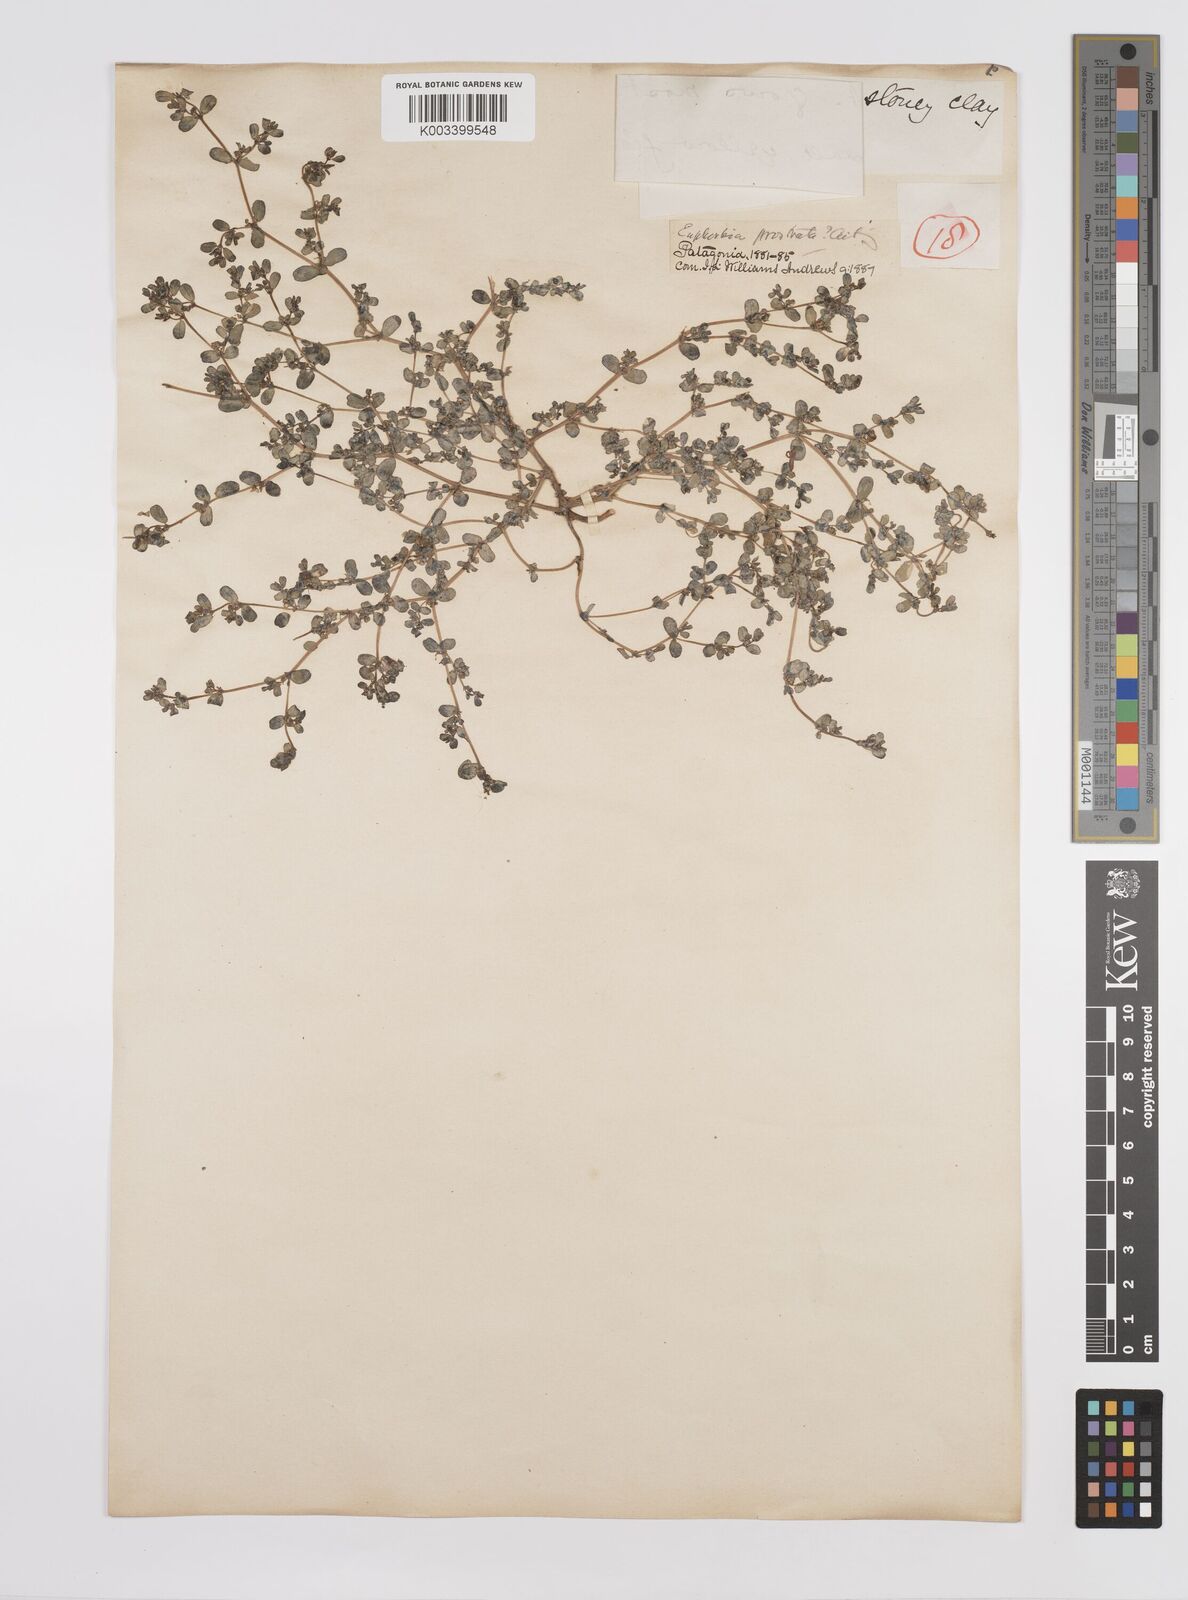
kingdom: Plantae
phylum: Tracheophyta
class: Magnoliopsida
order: Malpighiales
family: Euphorbiaceae
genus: Euphorbia
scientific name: Euphorbia
